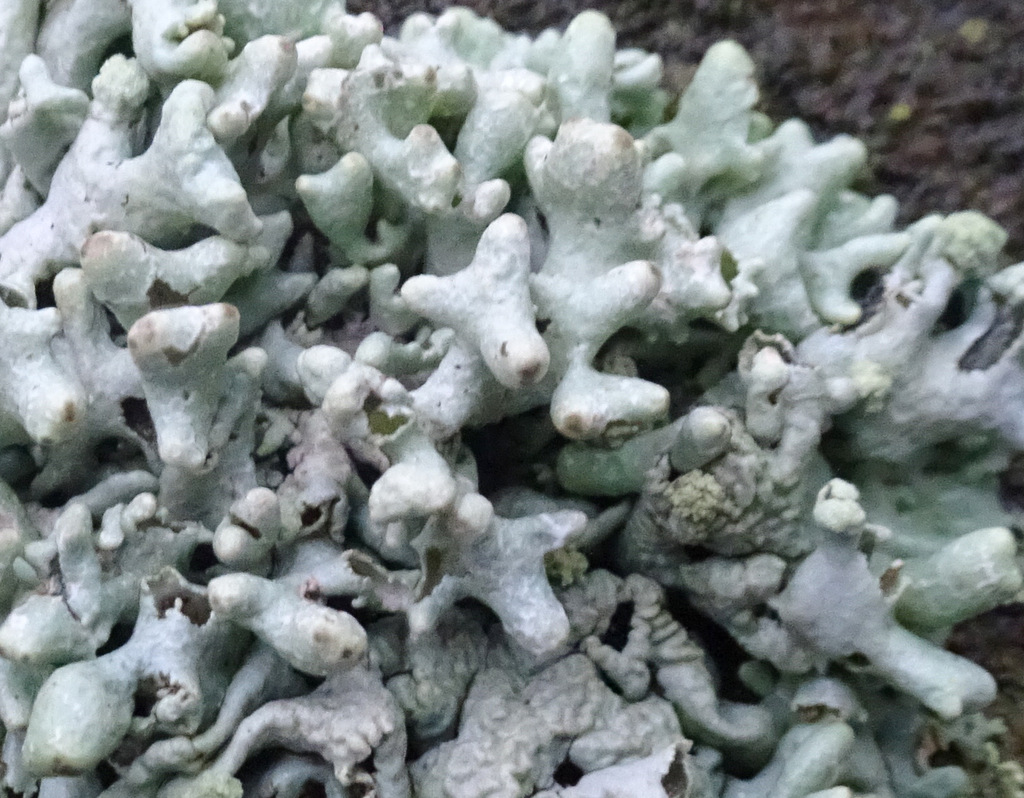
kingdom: Fungi
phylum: Ascomycota
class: Lecanoromycetes
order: Lecanorales
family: Parmeliaceae
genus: Hypogymnia
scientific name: Hypogymnia tubulosa
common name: finger-kvistlav
